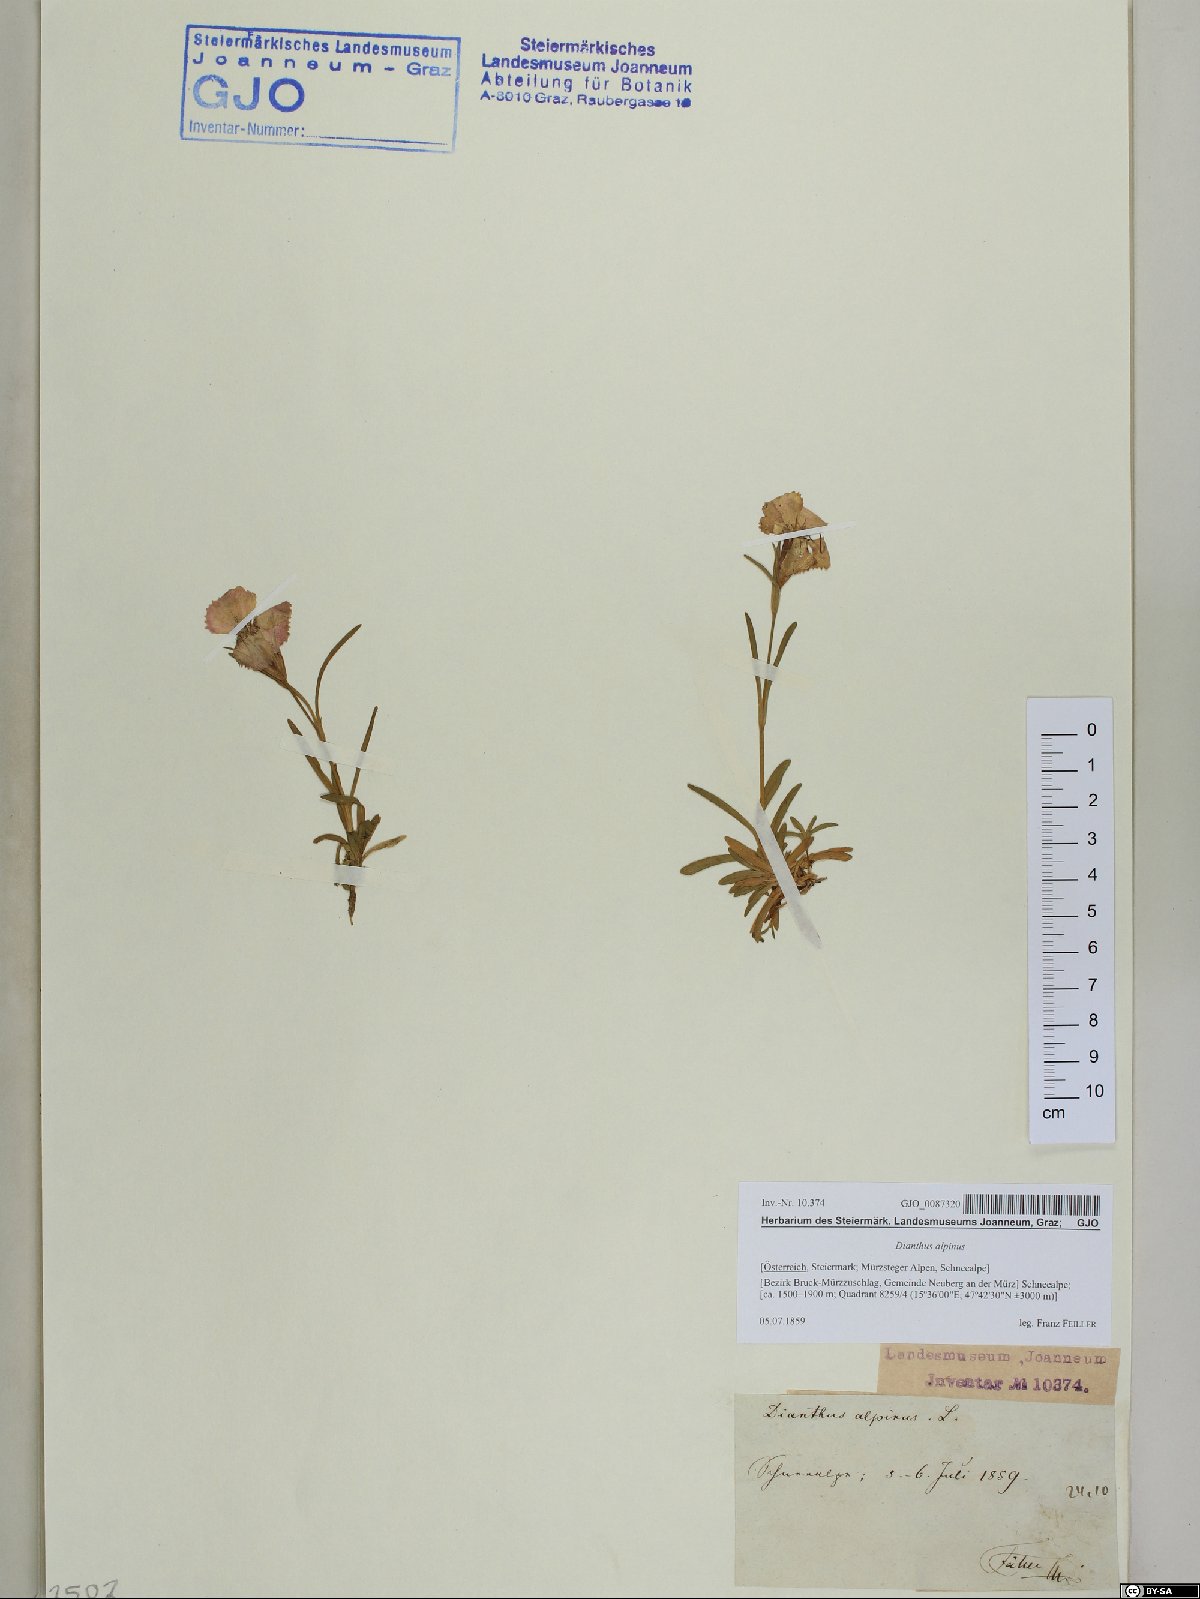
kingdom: Plantae
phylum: Tracheophyta
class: Magnoliopsida
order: Caryophyllales
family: Caryophyllaceae
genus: Dianthus
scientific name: Dianthus alpinus
